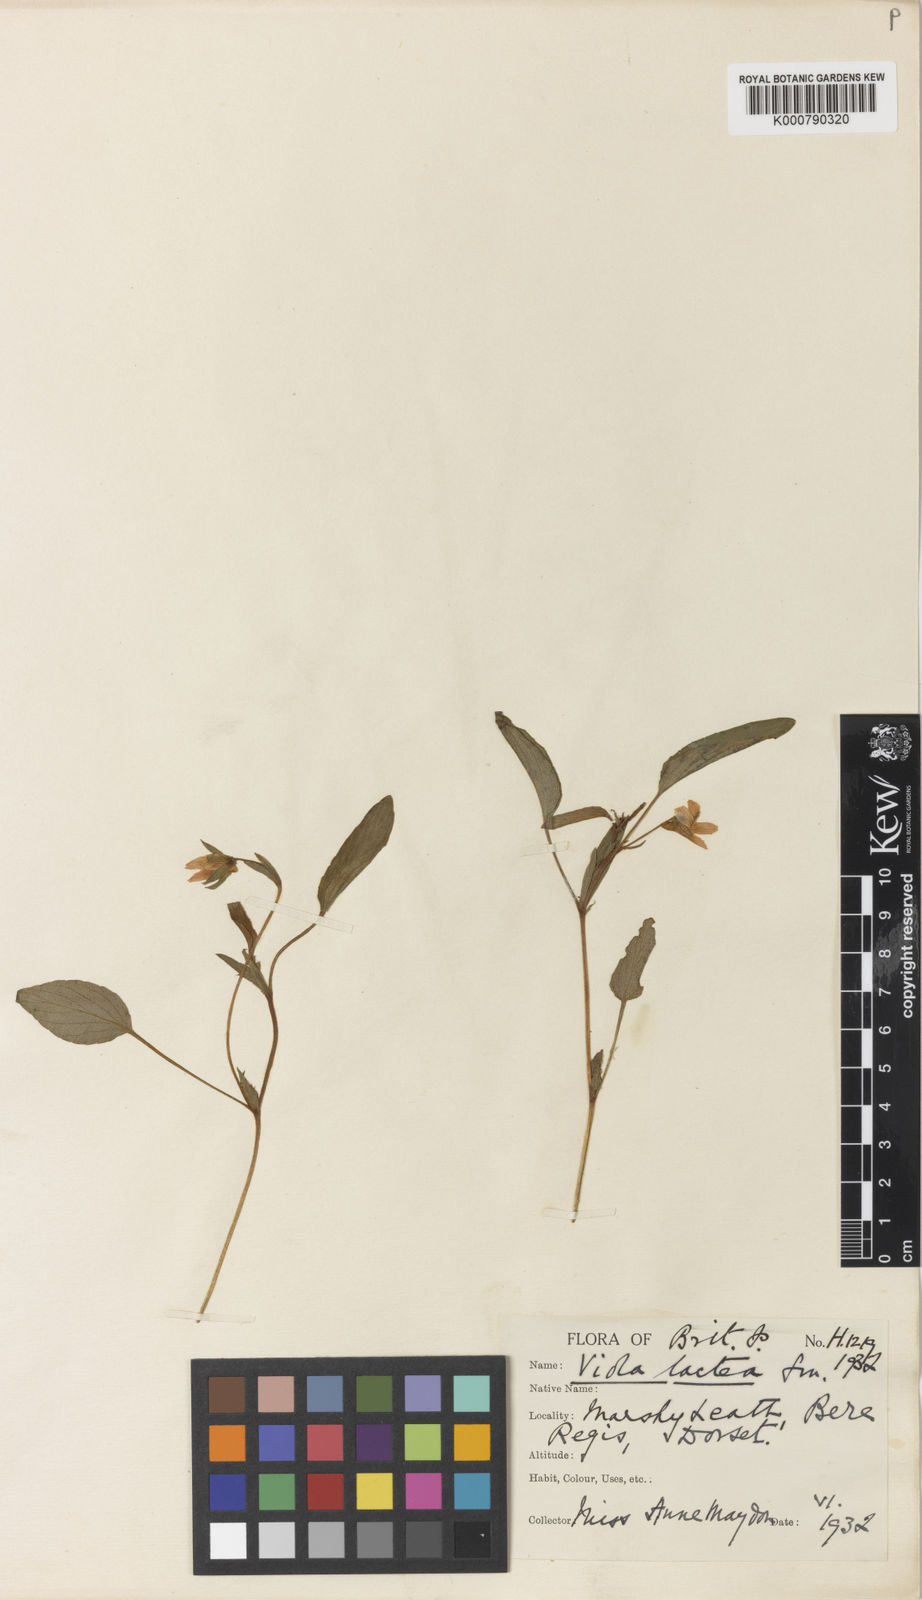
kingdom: Plantae
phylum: Tracheophyta
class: Magnoliopsida
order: Malpighiales
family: Violaceae
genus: Viola
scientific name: Viola lactea
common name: Pale dog-violet
